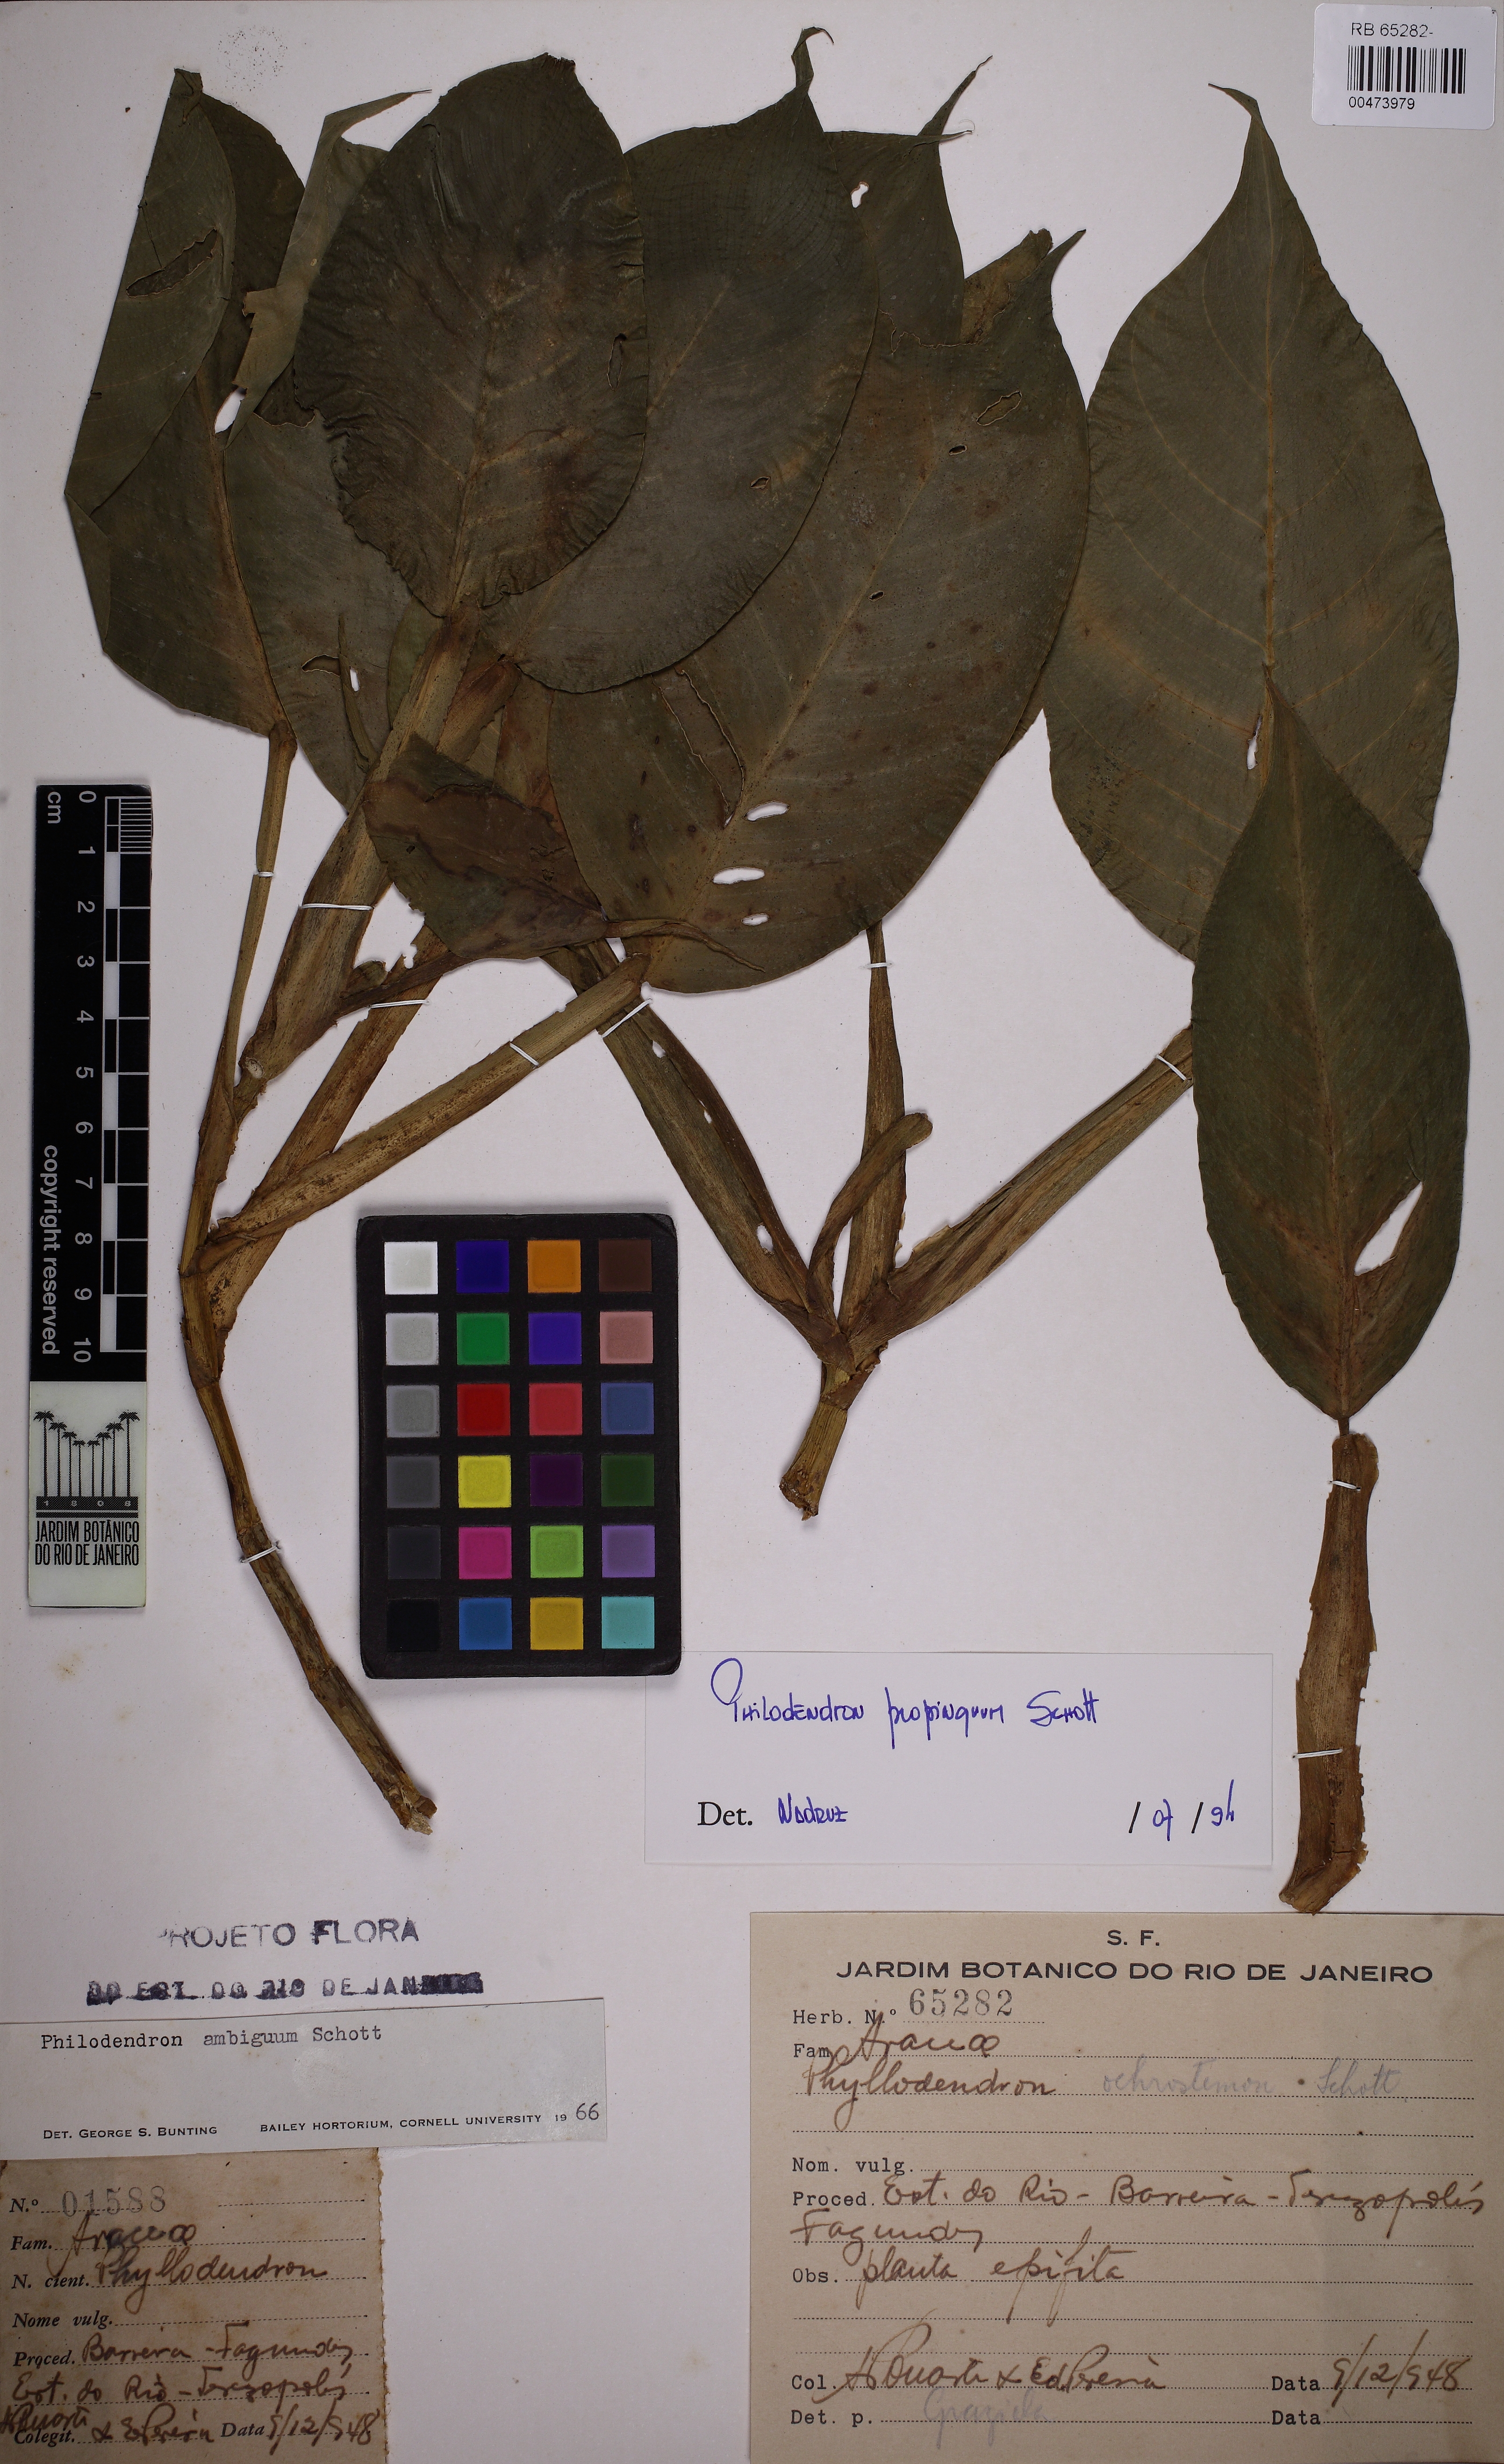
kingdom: Plantae
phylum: Tracheophyta
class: Liliopsida
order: Alismatales
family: Araceae
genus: Philodendron
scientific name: Philodendron propinquum
